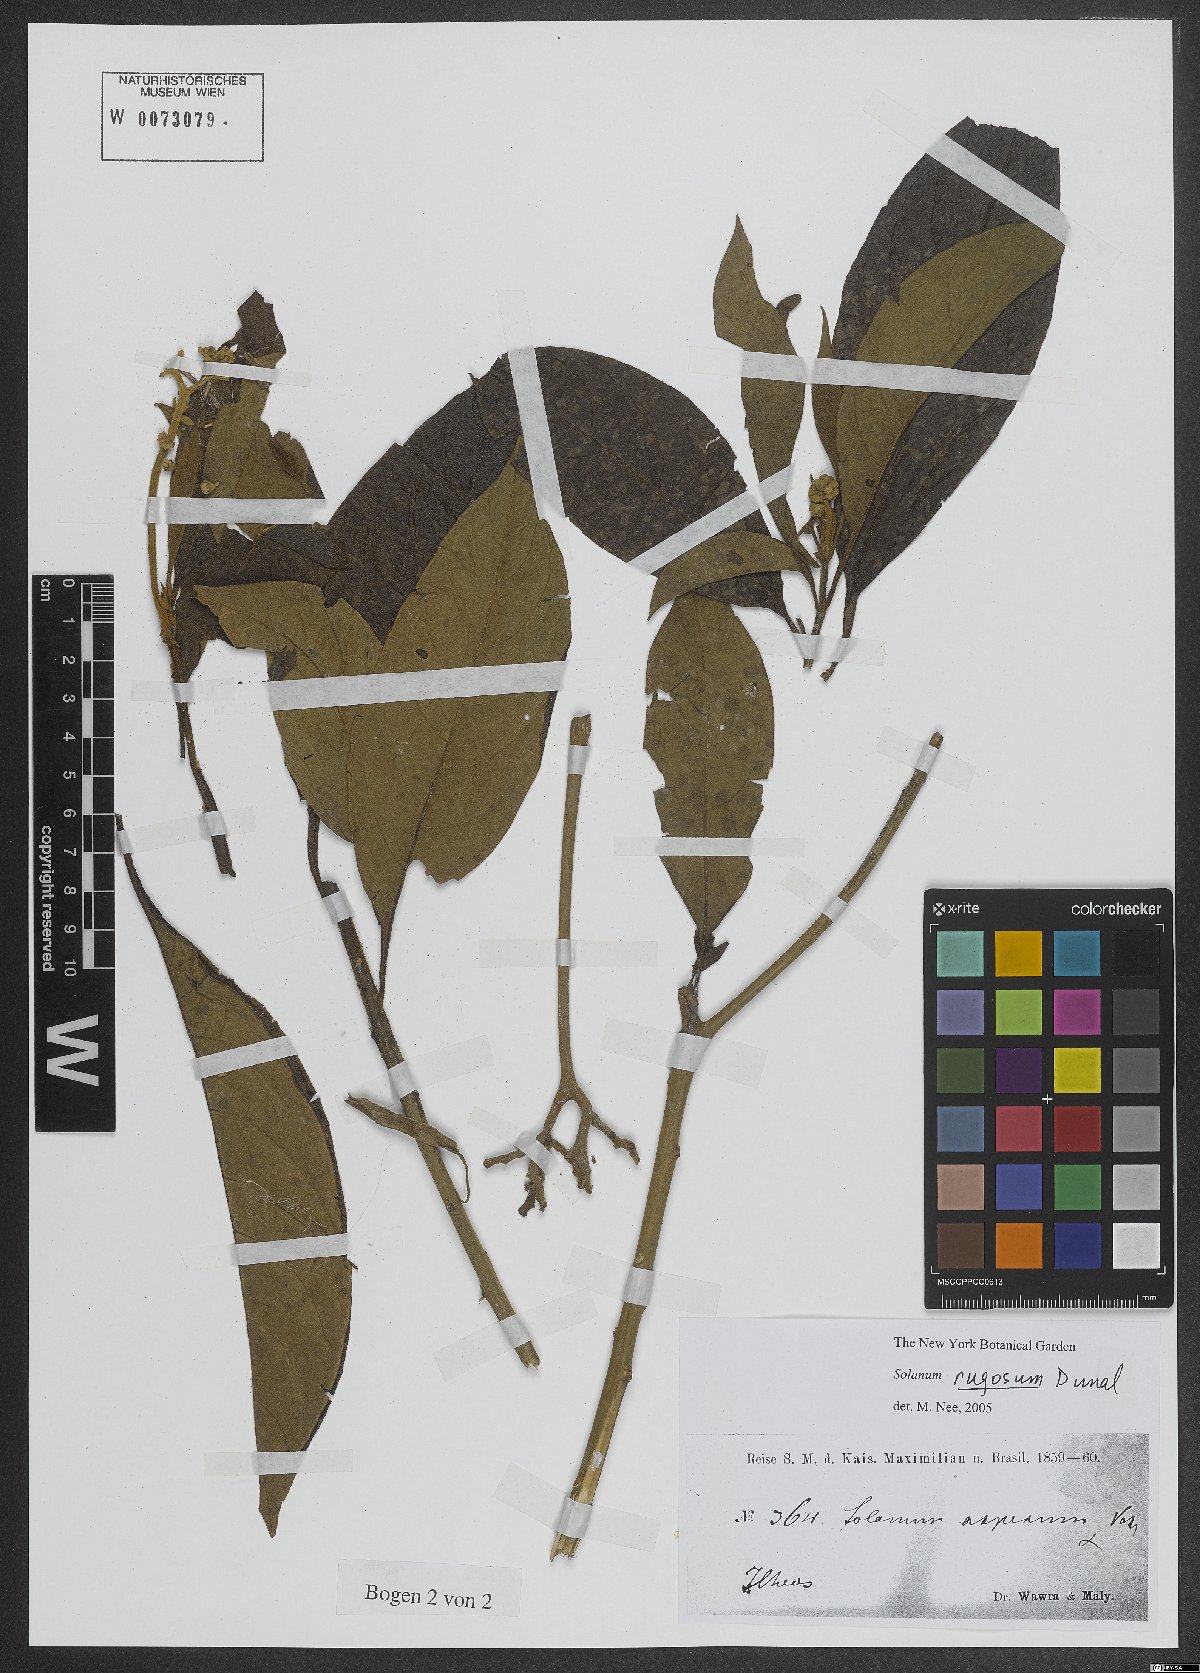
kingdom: Plantae
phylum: Tracheophyta
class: Magnoliopsida
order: Solanales
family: Solanaceae
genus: Solanum
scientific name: Solanum rugosum
